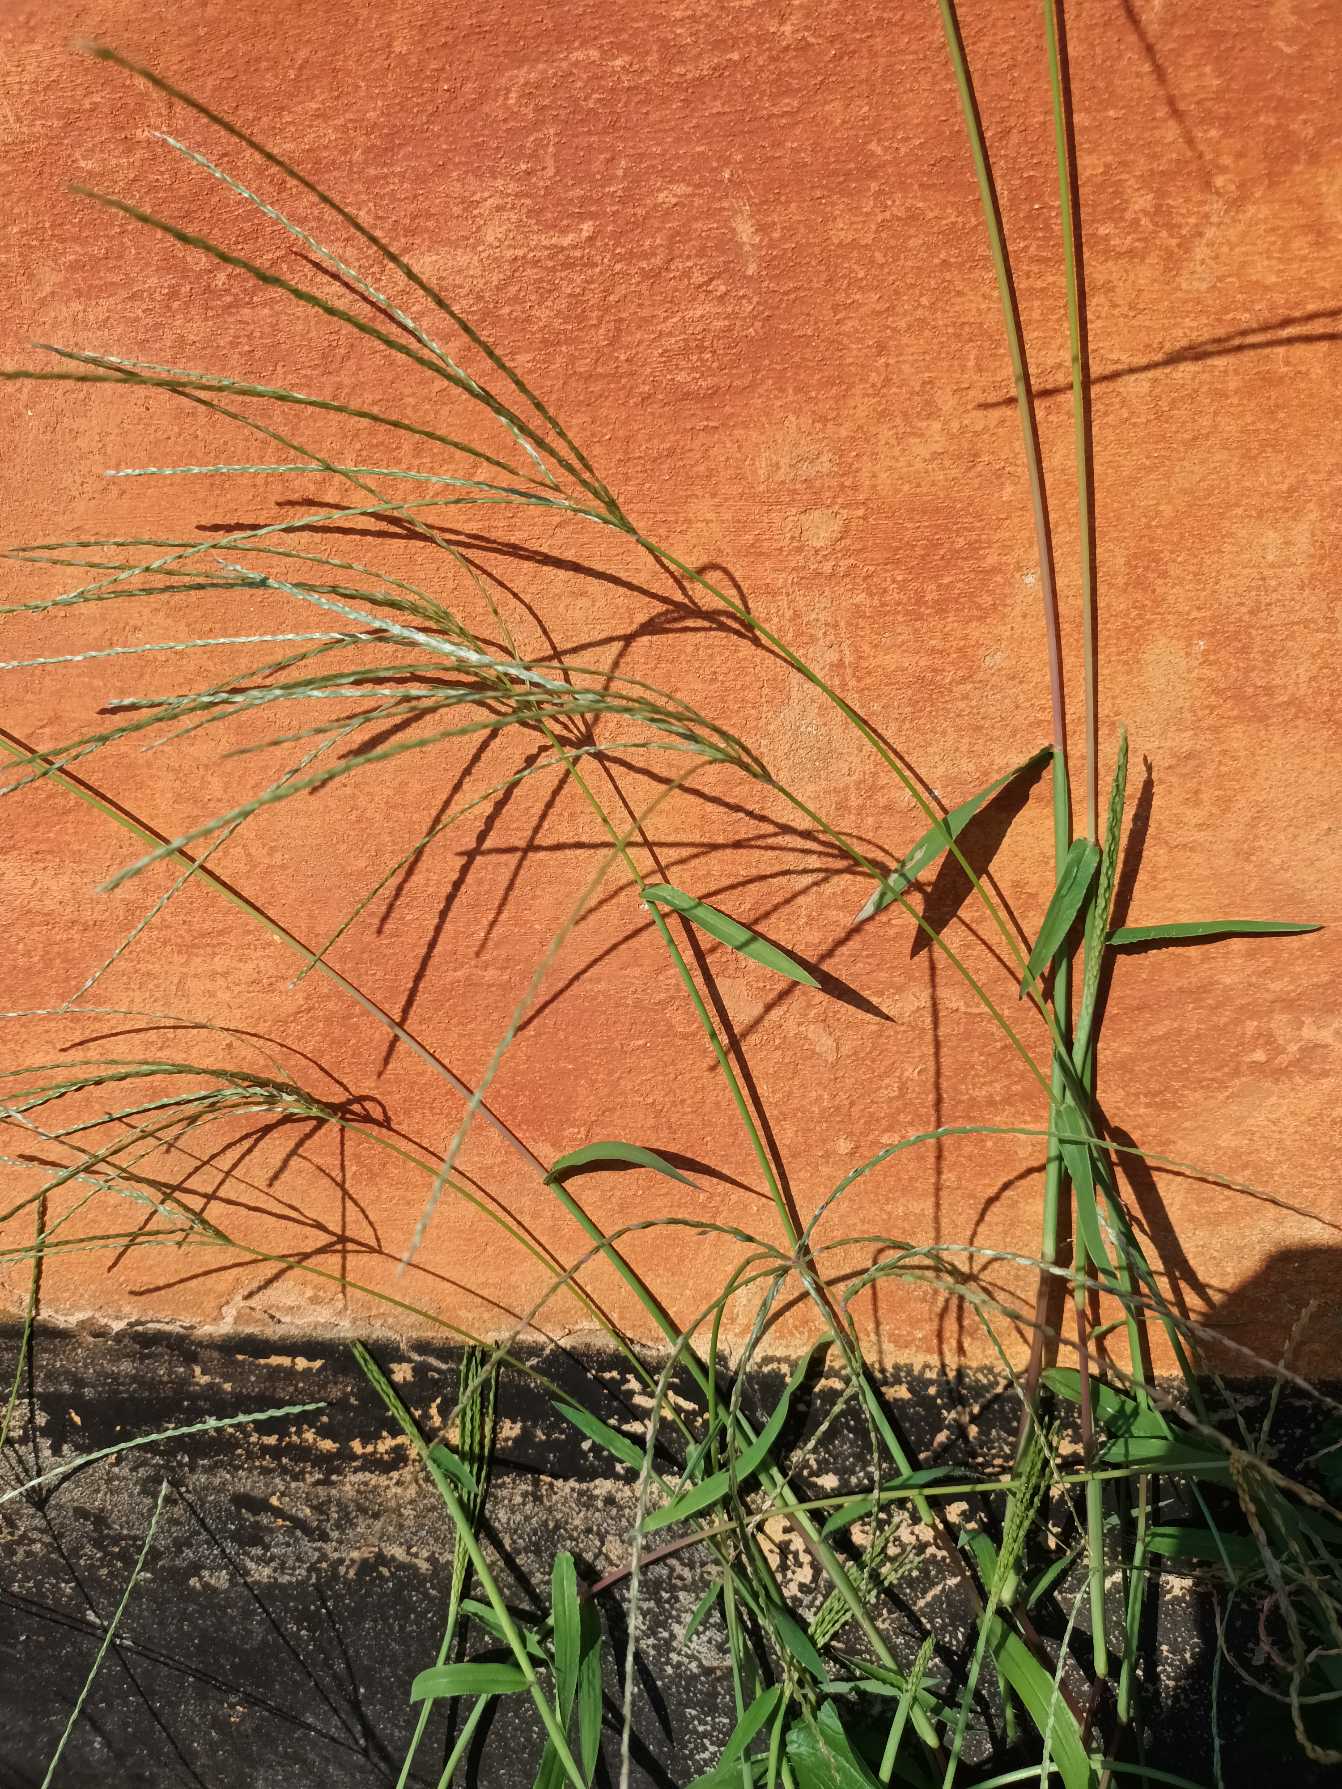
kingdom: Plantae
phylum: Tracheophyta
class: Liliopsida
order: Poales
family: Poaceae
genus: Digitaria
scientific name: Digitaria sanguinalis
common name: Blodhirse
